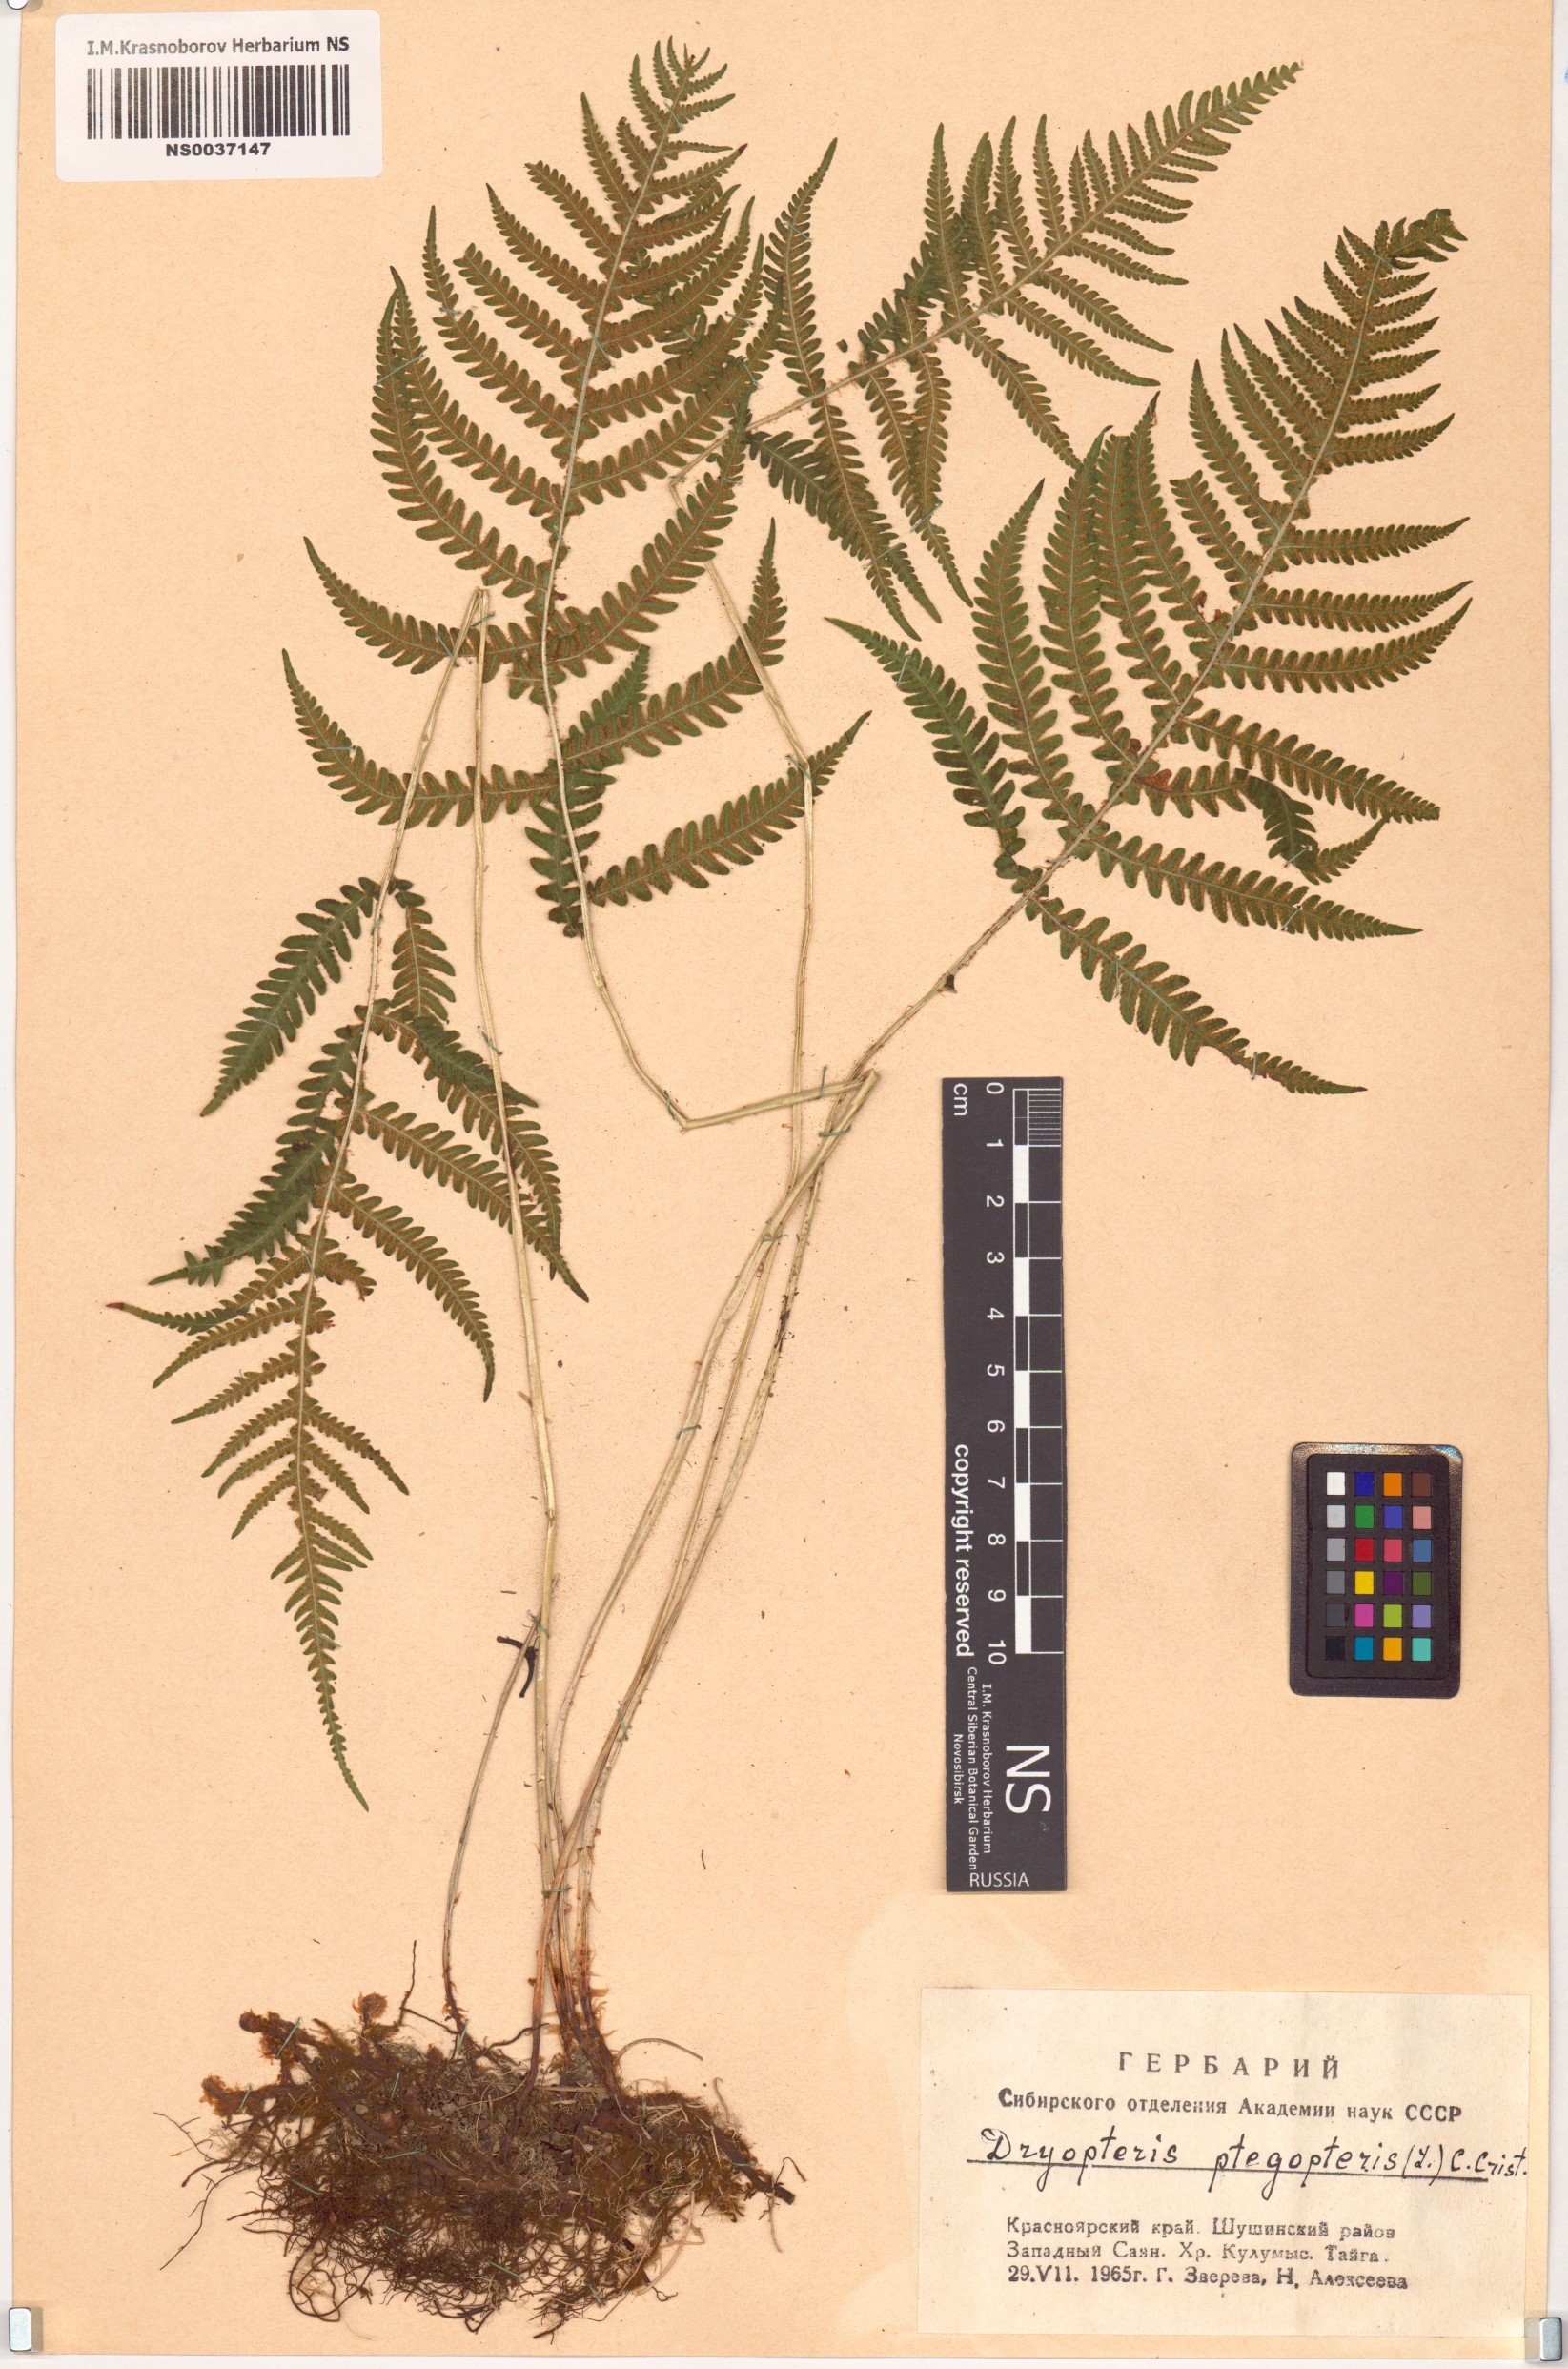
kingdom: Plantae
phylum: Tracheophyta
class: Polypodiopsida
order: Polypodiales
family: Thelypteridaceae
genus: Phegopteris
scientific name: Phegopteris connectilis
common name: Beech fern
